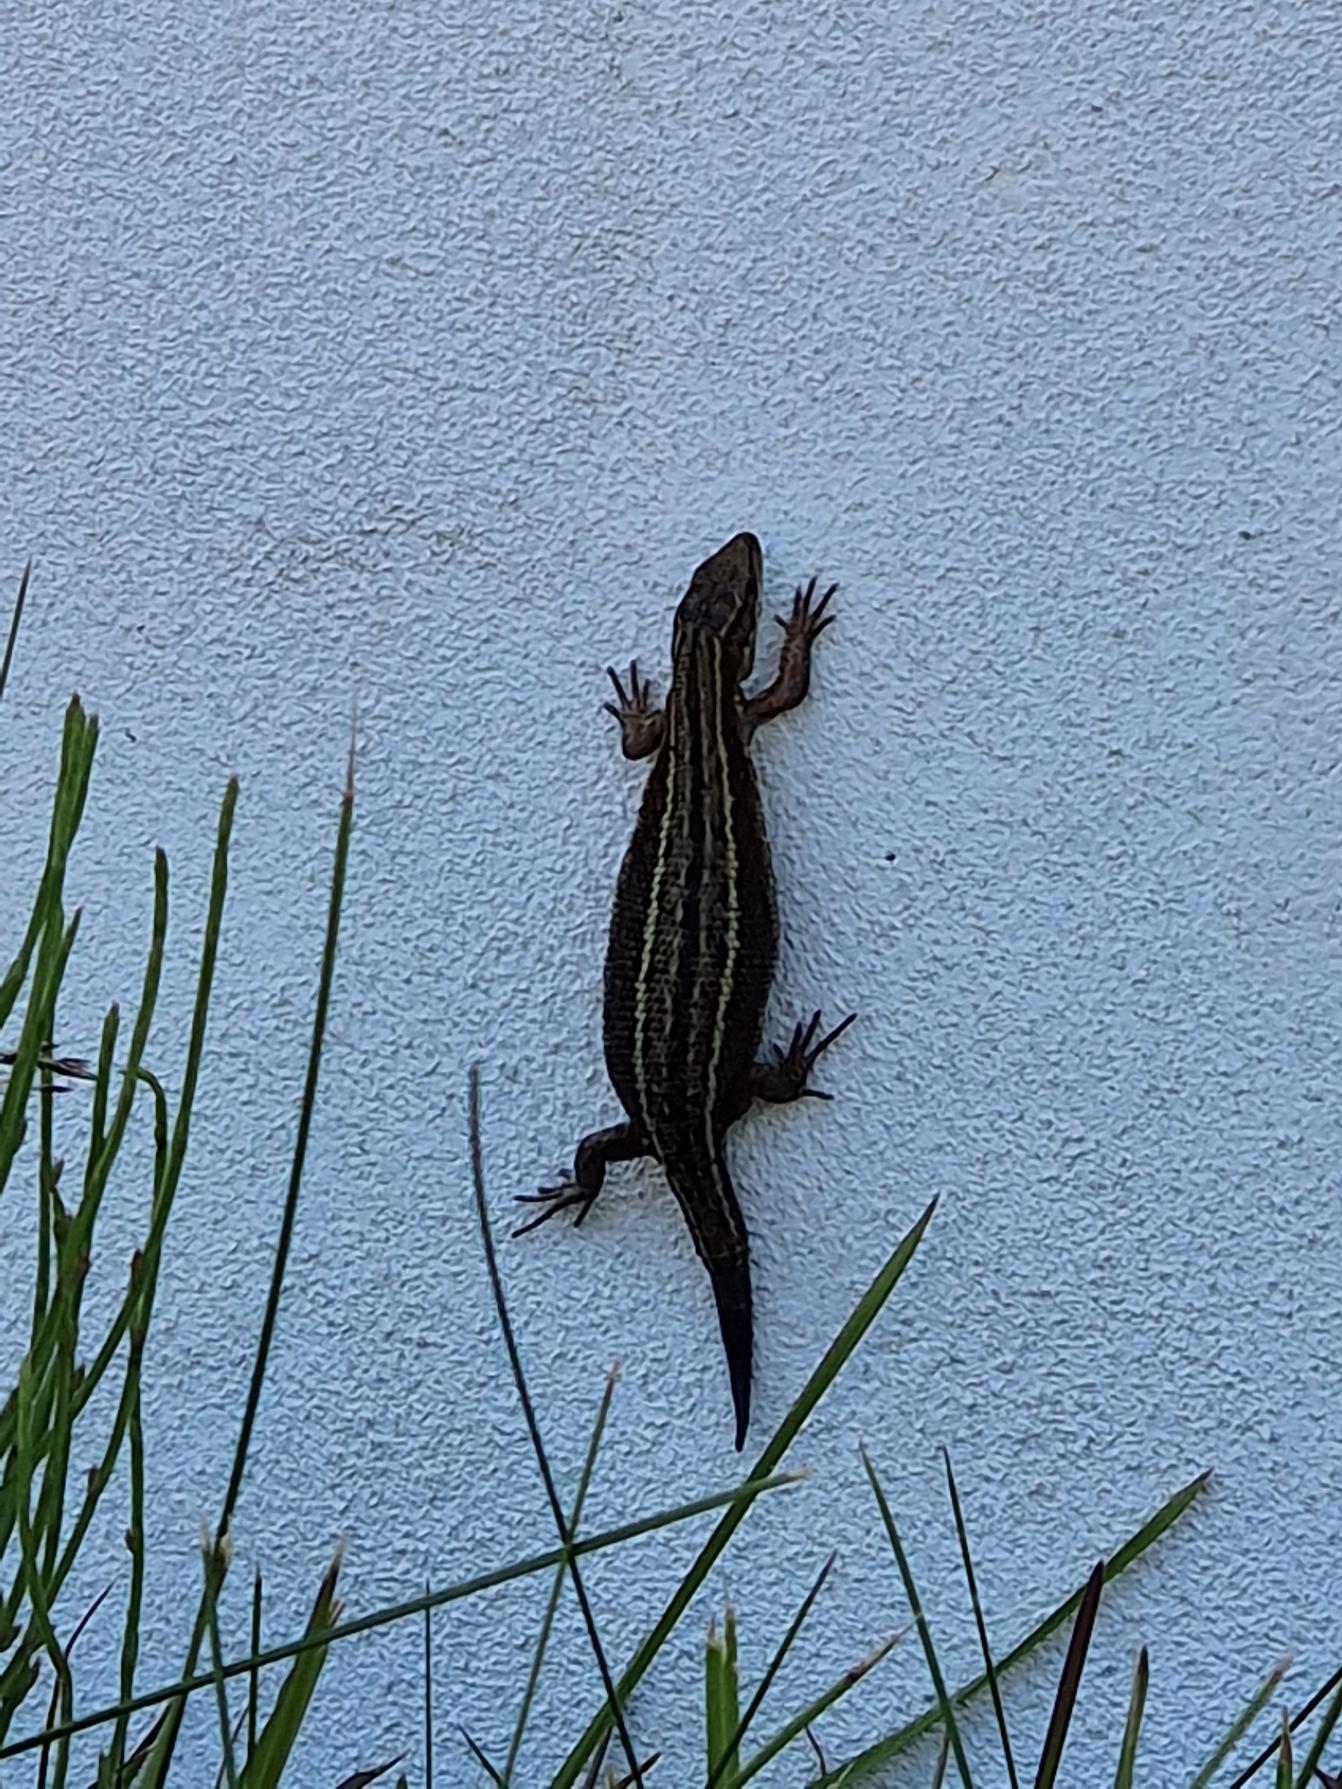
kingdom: Animalia
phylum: Chordata
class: Squamata
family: Lacertidae
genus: Zootoca
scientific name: Zootoca vivipara
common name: Skovfirben
